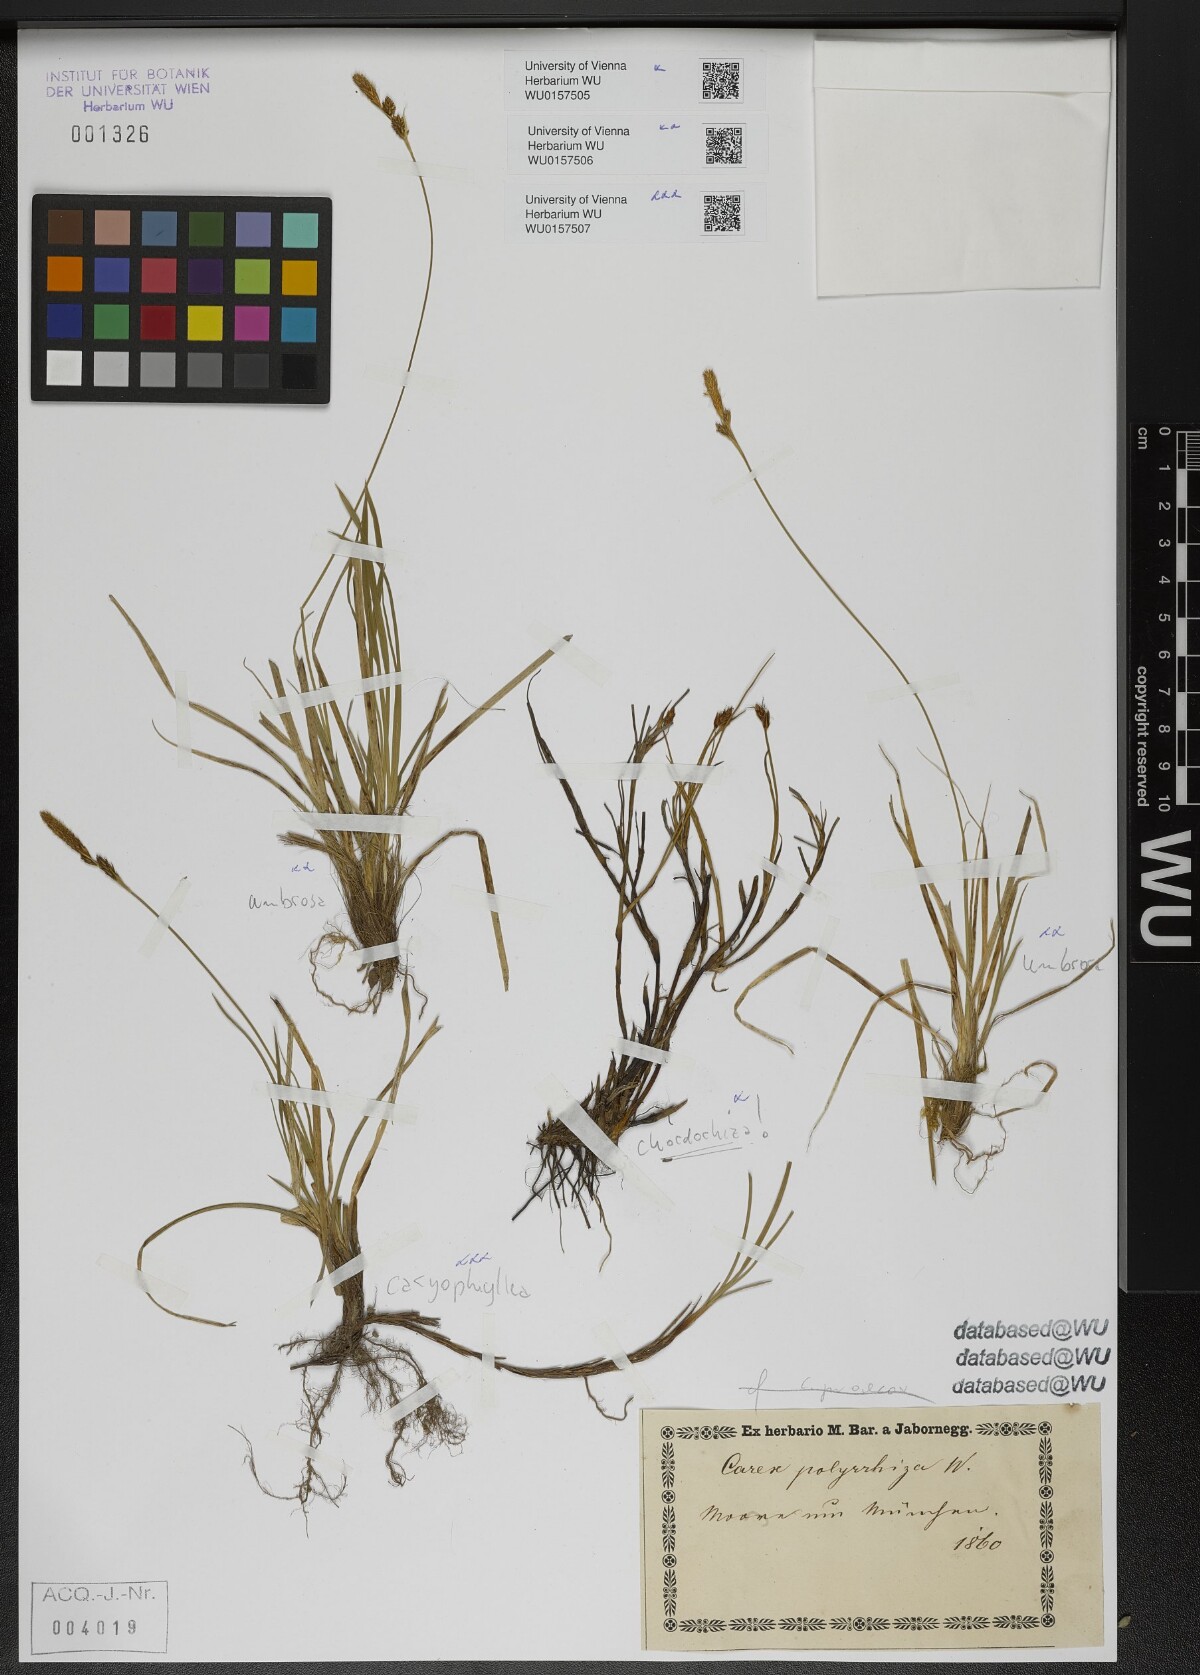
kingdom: Plantae
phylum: Tracheophyta
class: Liliopsida
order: Poales
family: Cyperaceae
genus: Carex
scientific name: Carex caryophyllea
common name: Spring sedge
